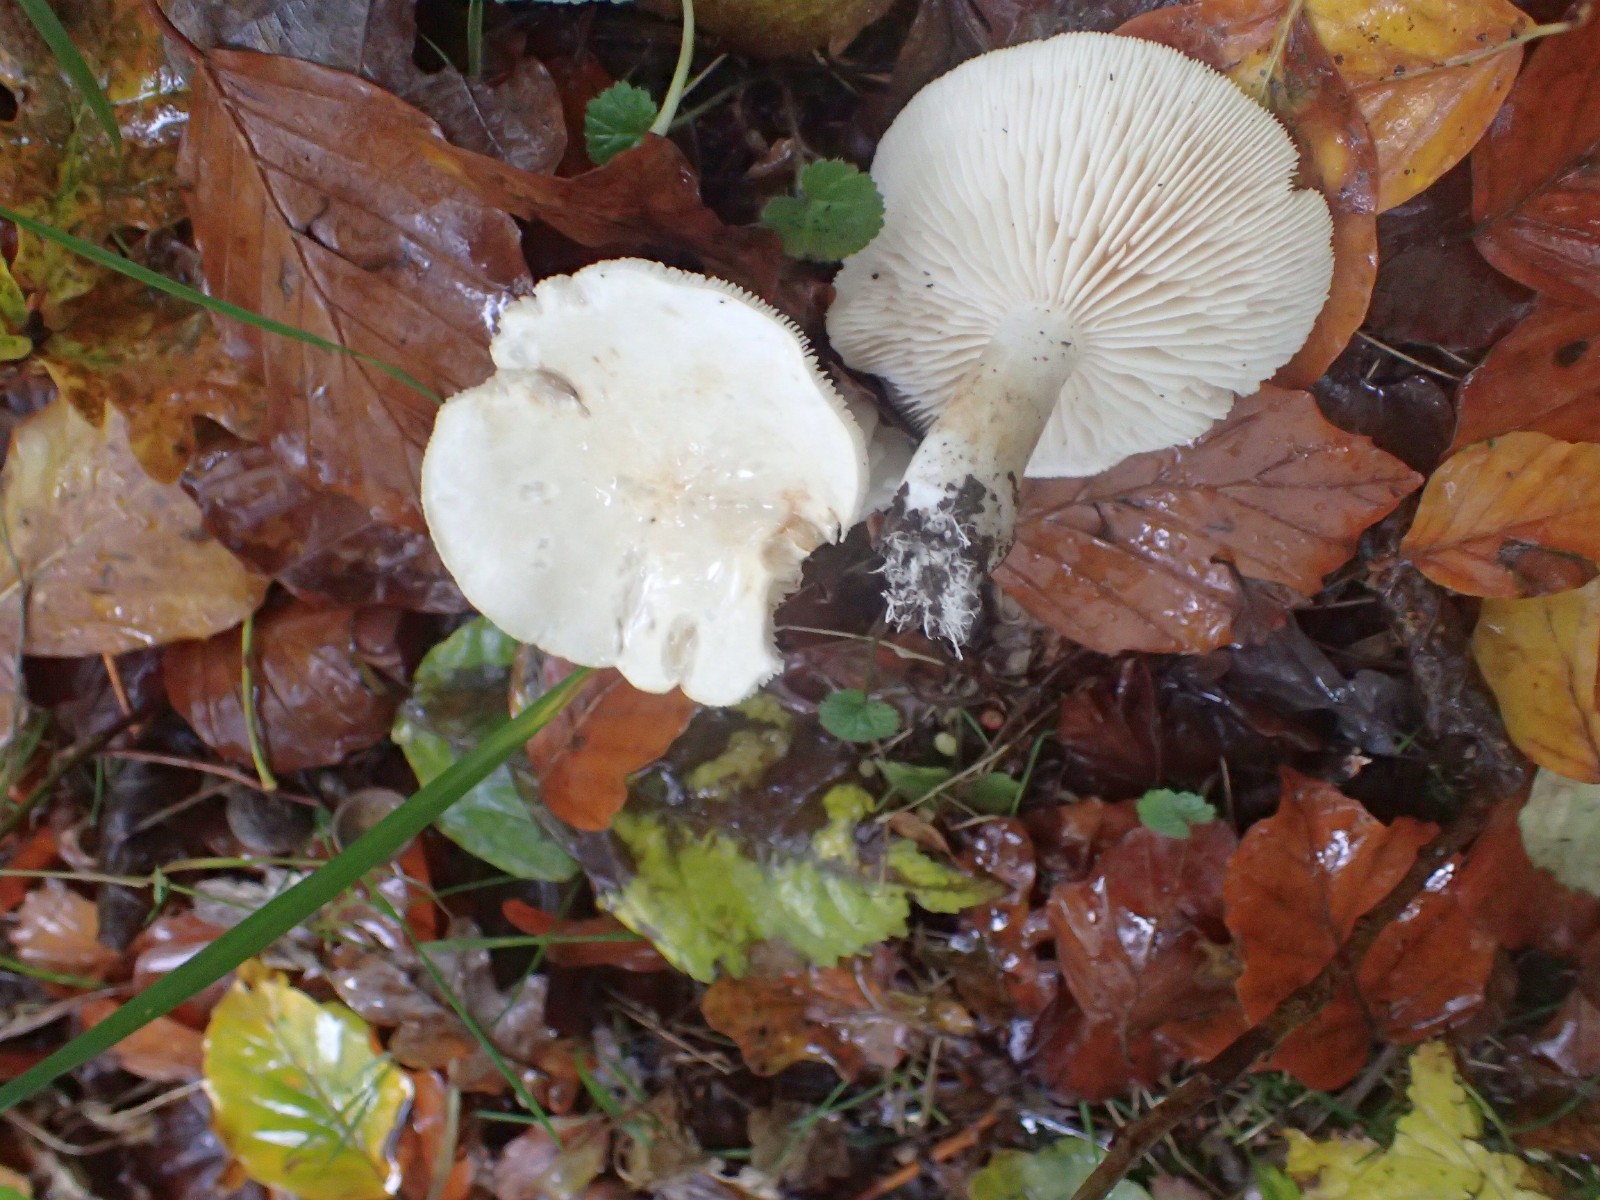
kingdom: Fungi
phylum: Basidiomycota
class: Agaricomycetes
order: Agaricales
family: Tricholomataceae
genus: Tricholoma
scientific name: Tricholoma stiparophyllum
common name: hvid ridderhat
